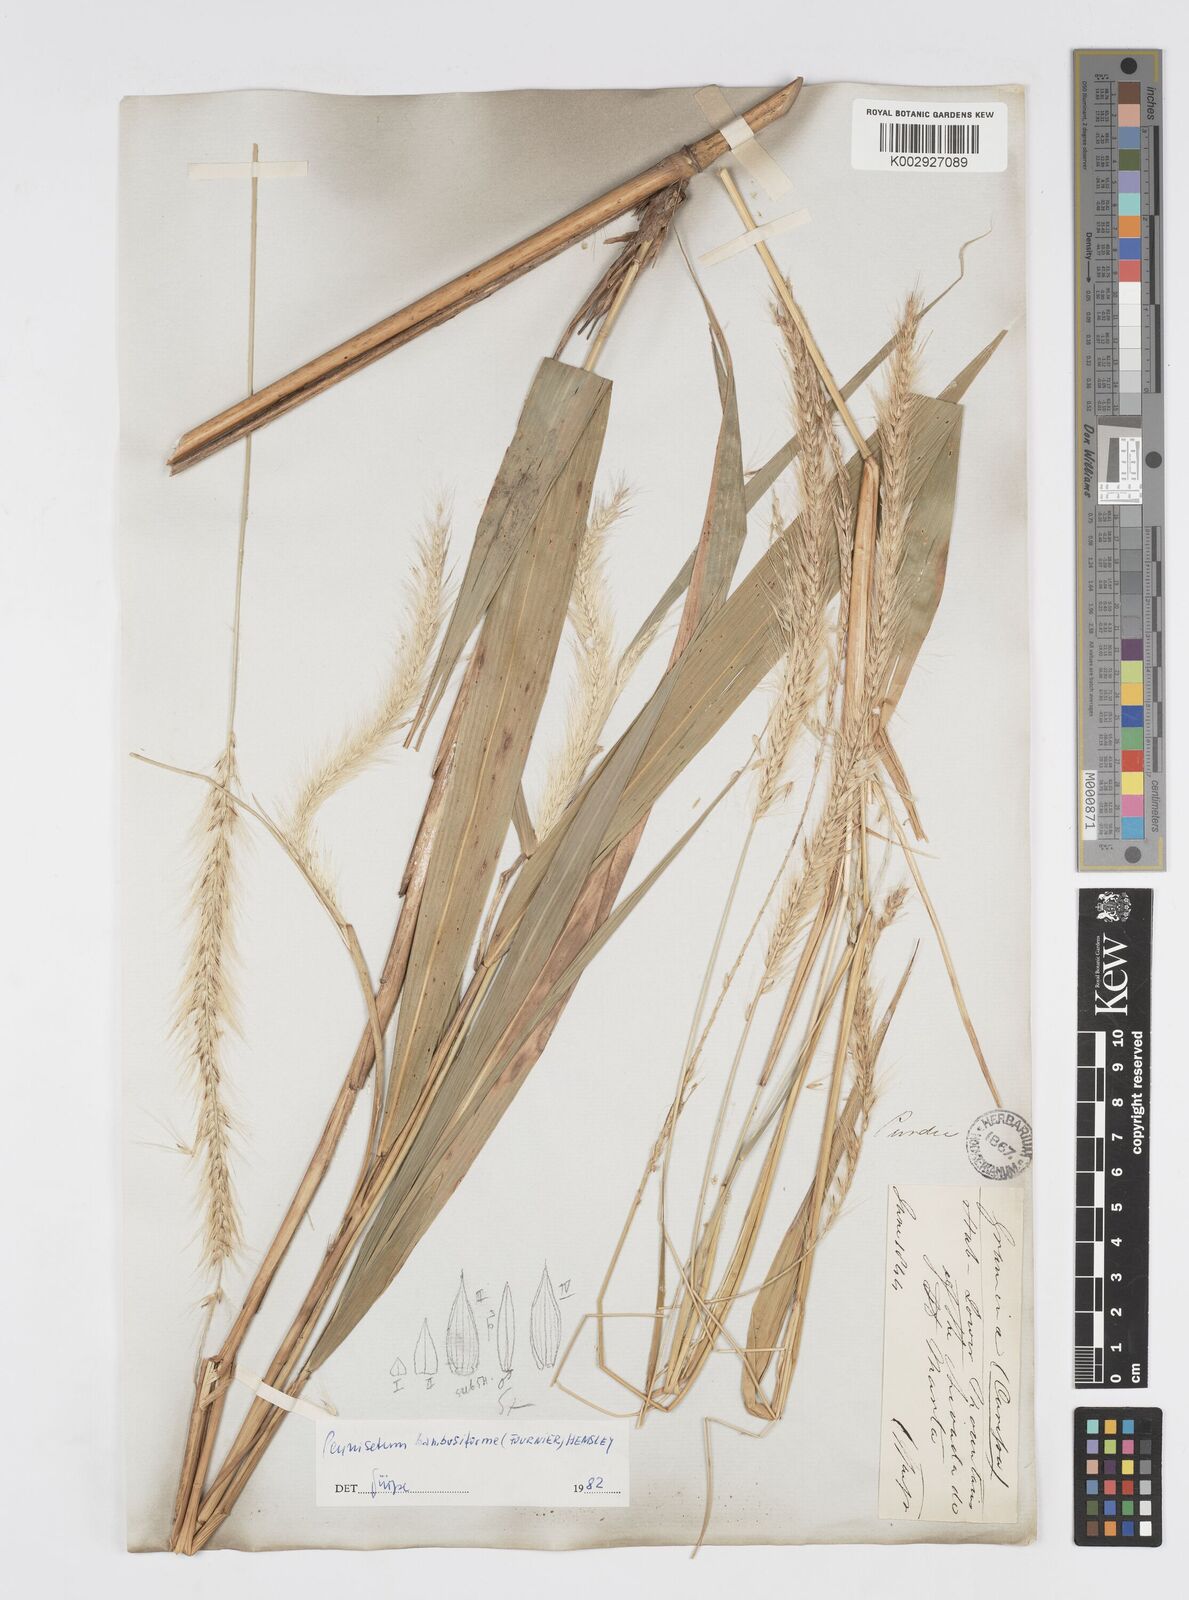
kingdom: Plantae
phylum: Tracheophyta
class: Liliopsida
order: Poales
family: Poaceae
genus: Cenchrus
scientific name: Cenchrus tristachyus
